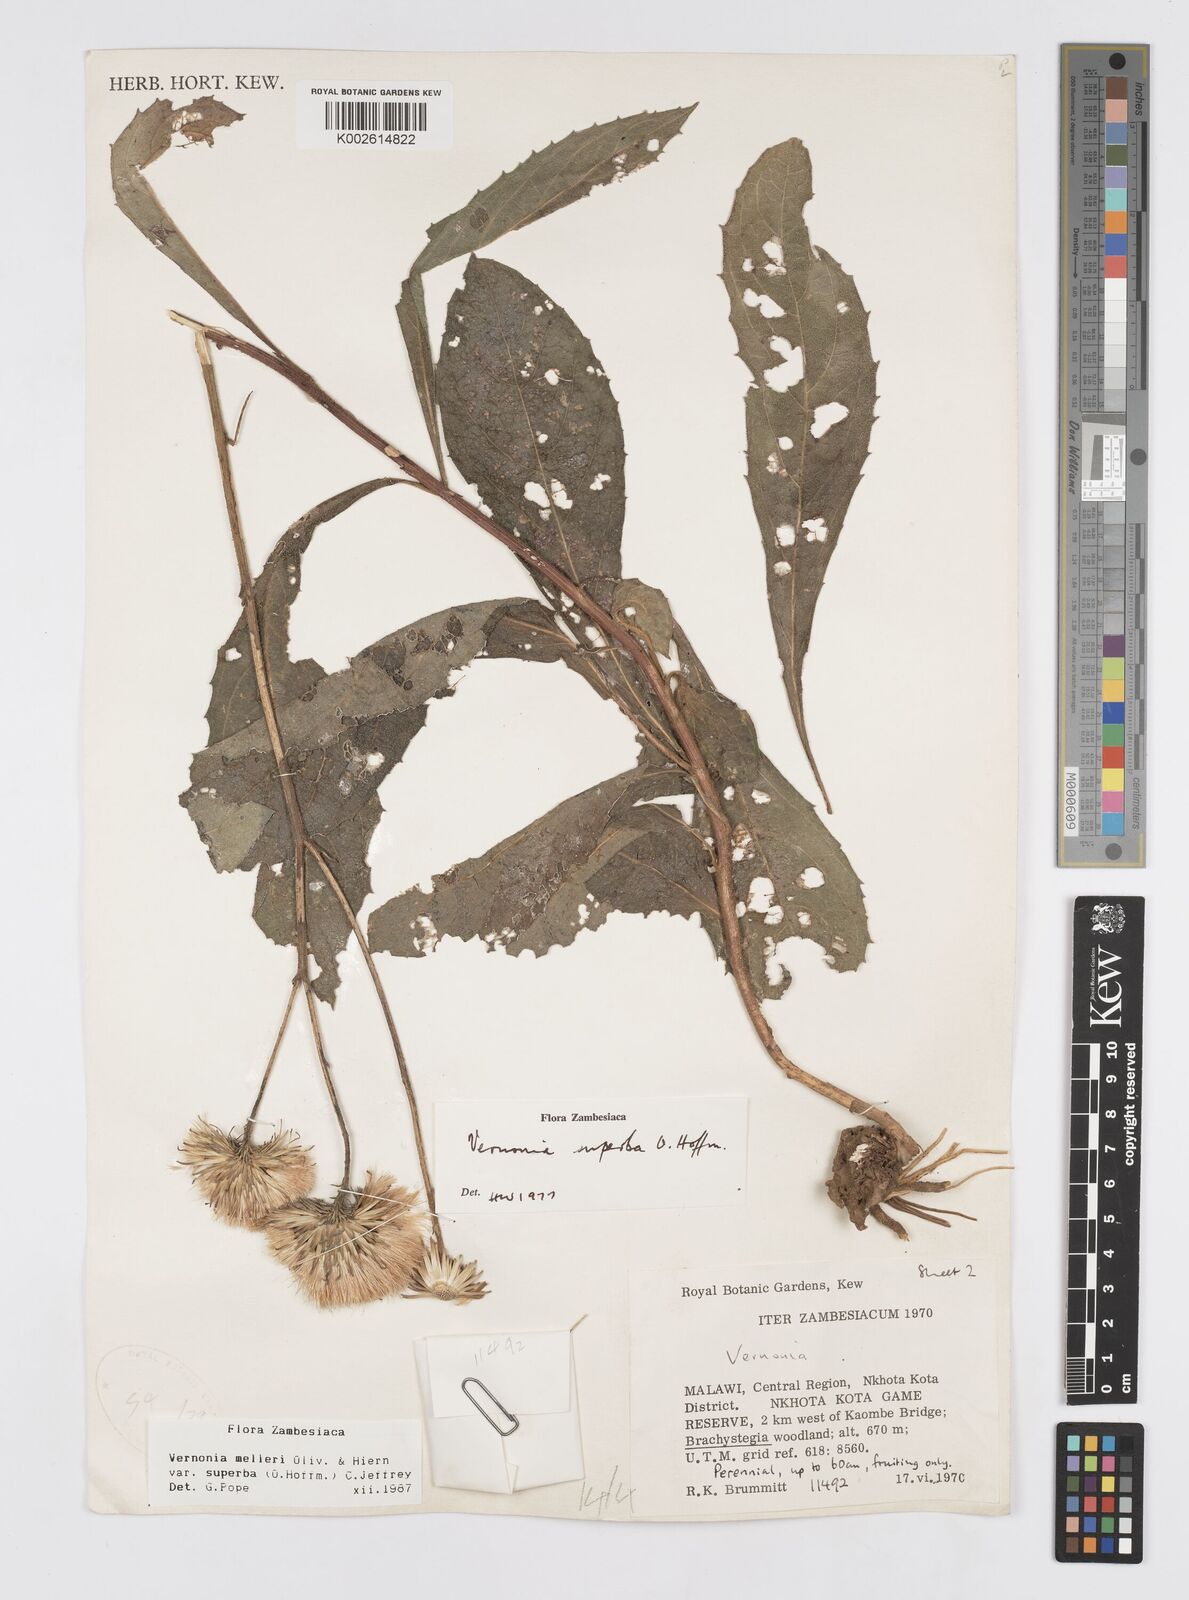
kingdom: Plantae
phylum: Tracheophyta
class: Magnoliopsida
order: Asterales
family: Asteraceae
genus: Linzia
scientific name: Linzia melleri
